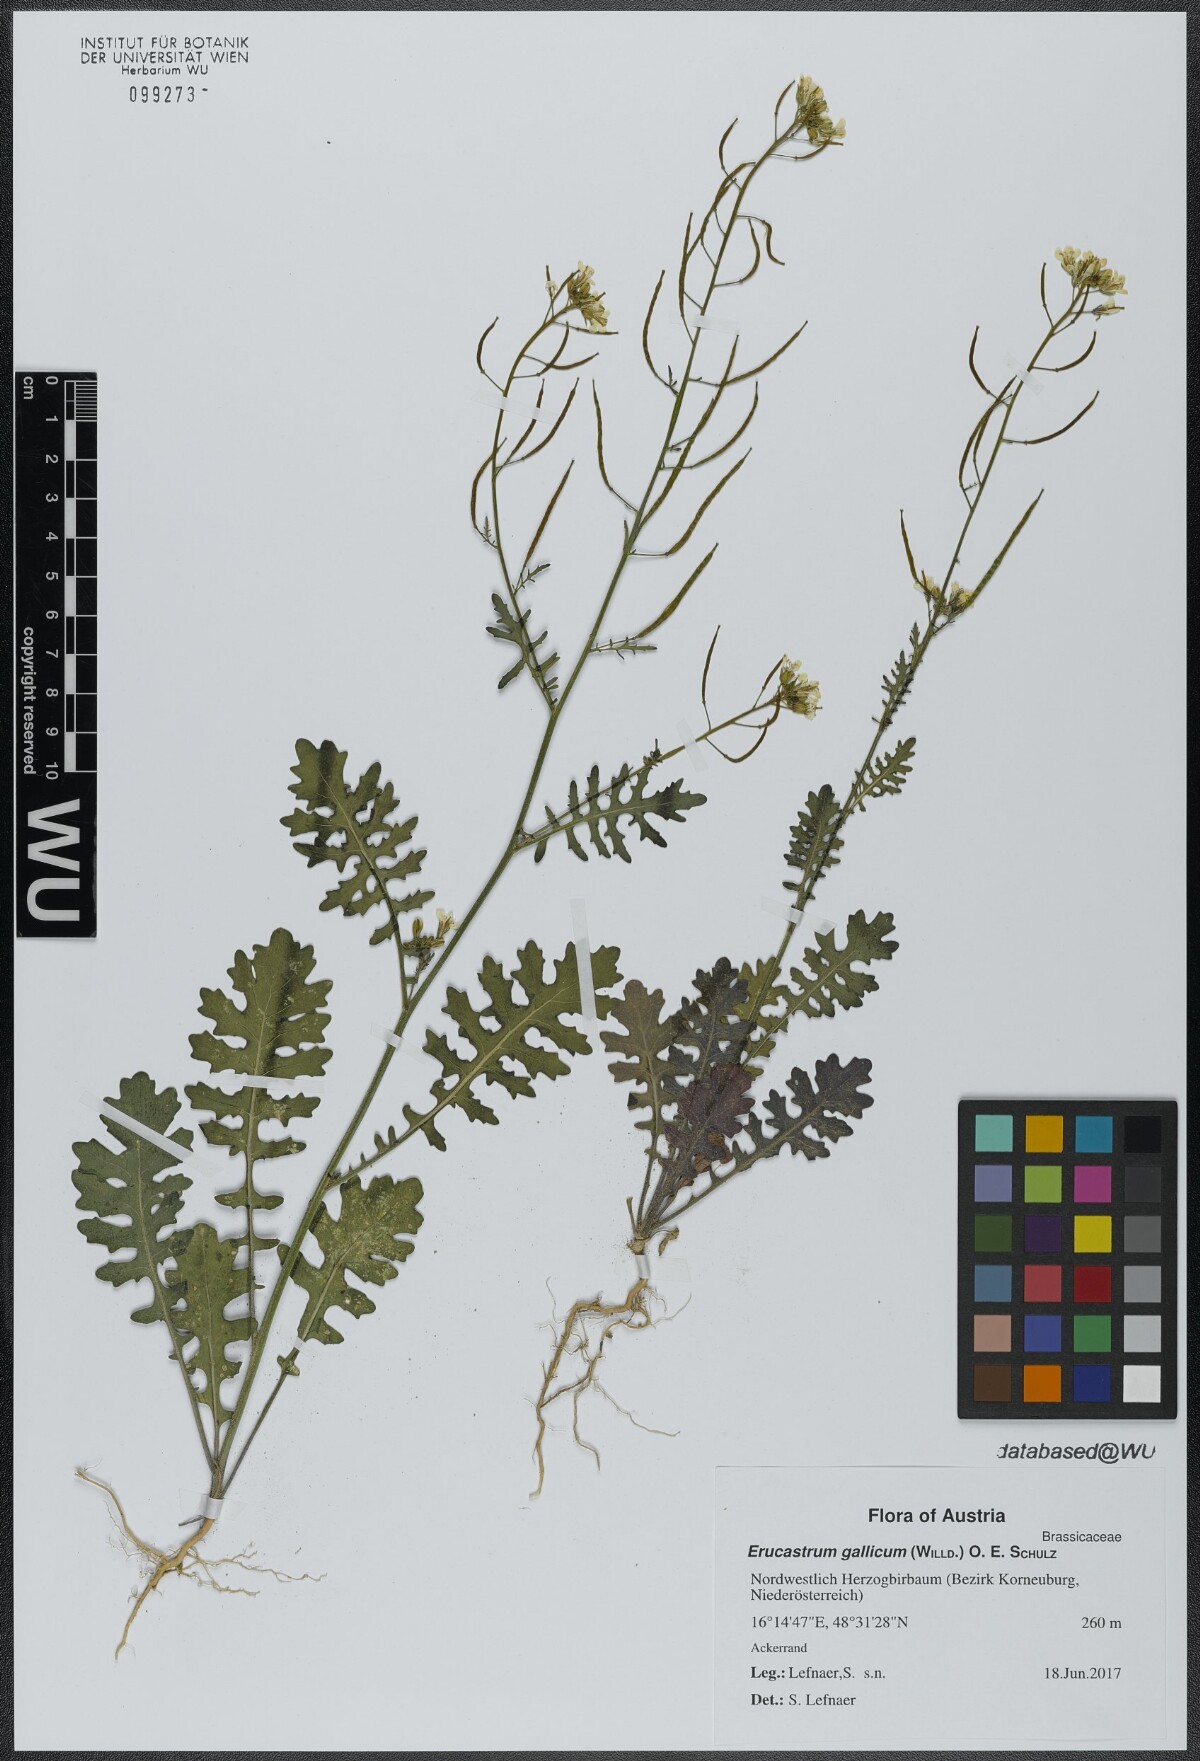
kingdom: Plantae
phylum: Tracheophyta
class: Magnoliopsida
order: Brassicales
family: Brassicaceae
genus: Erucastrum
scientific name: Erucastrum gallicum
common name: Hairy rocket
